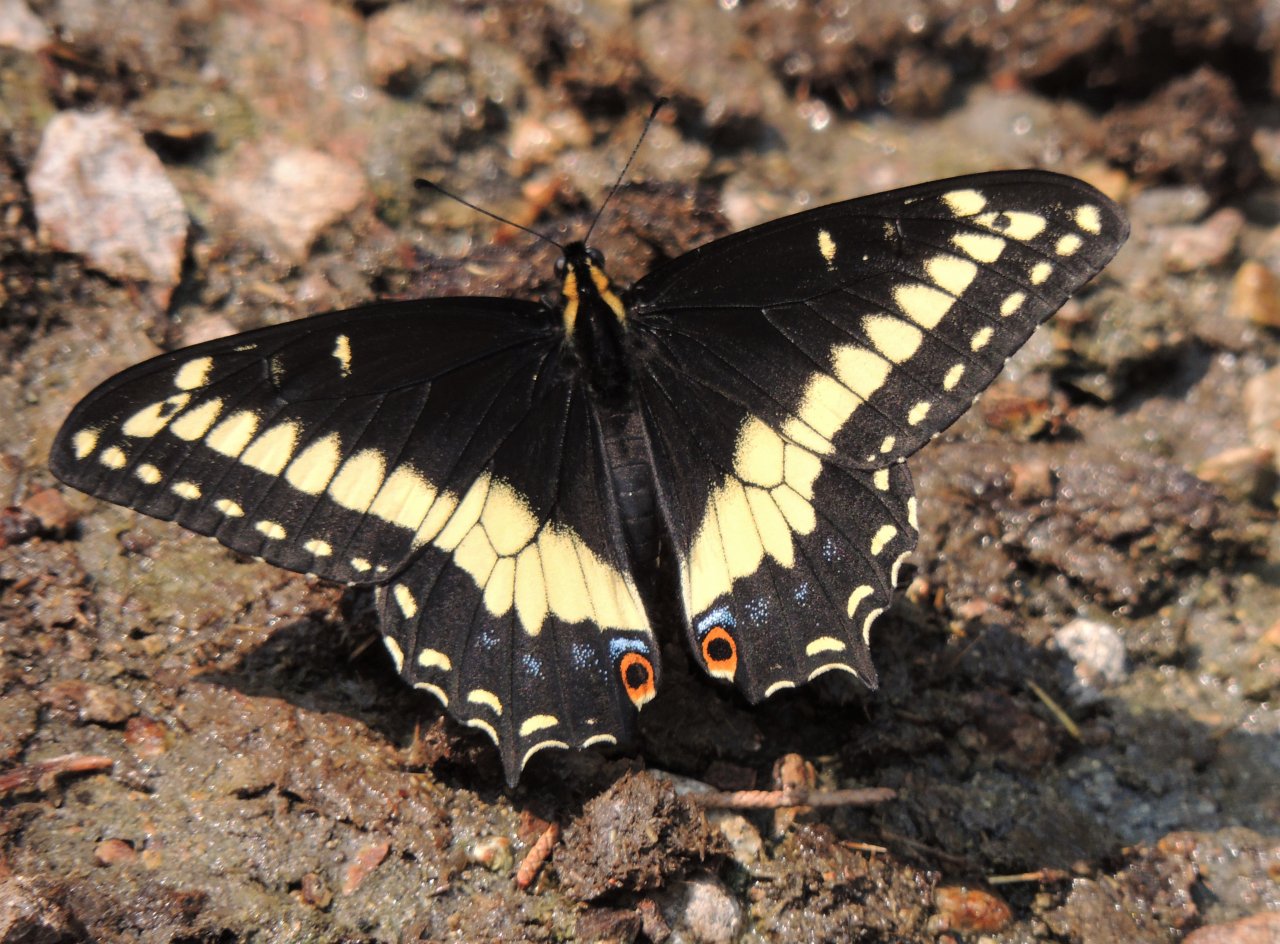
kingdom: Animalia
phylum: Arthropoda
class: Insecta
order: Lepidoptera
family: Papilionidae
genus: Papilio
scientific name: Papilio indra
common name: Indra Swallowtail
